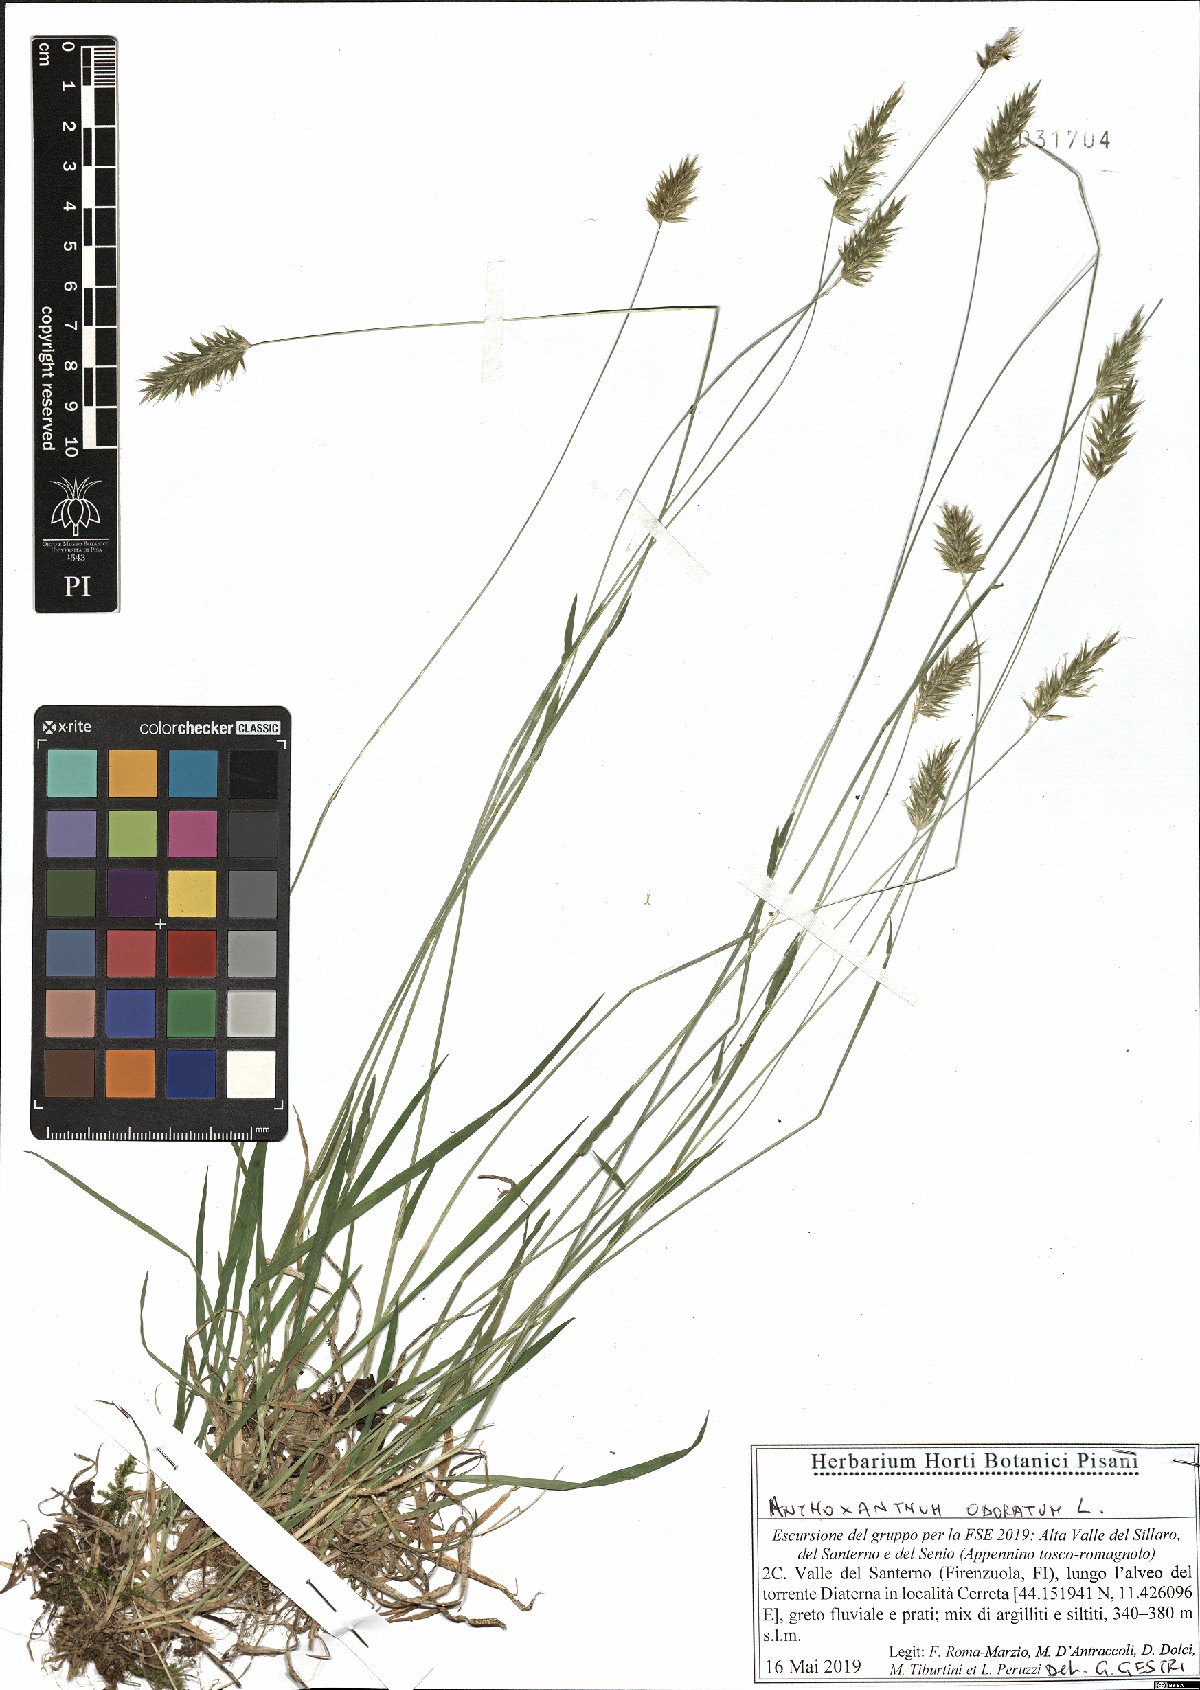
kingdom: Plantae
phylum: Tracheophyta
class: Liliopsida
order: Poales
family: Poaceae
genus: Anthoxanthum
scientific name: Anthoxanthum odoratum
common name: Sweet vernalgrass
